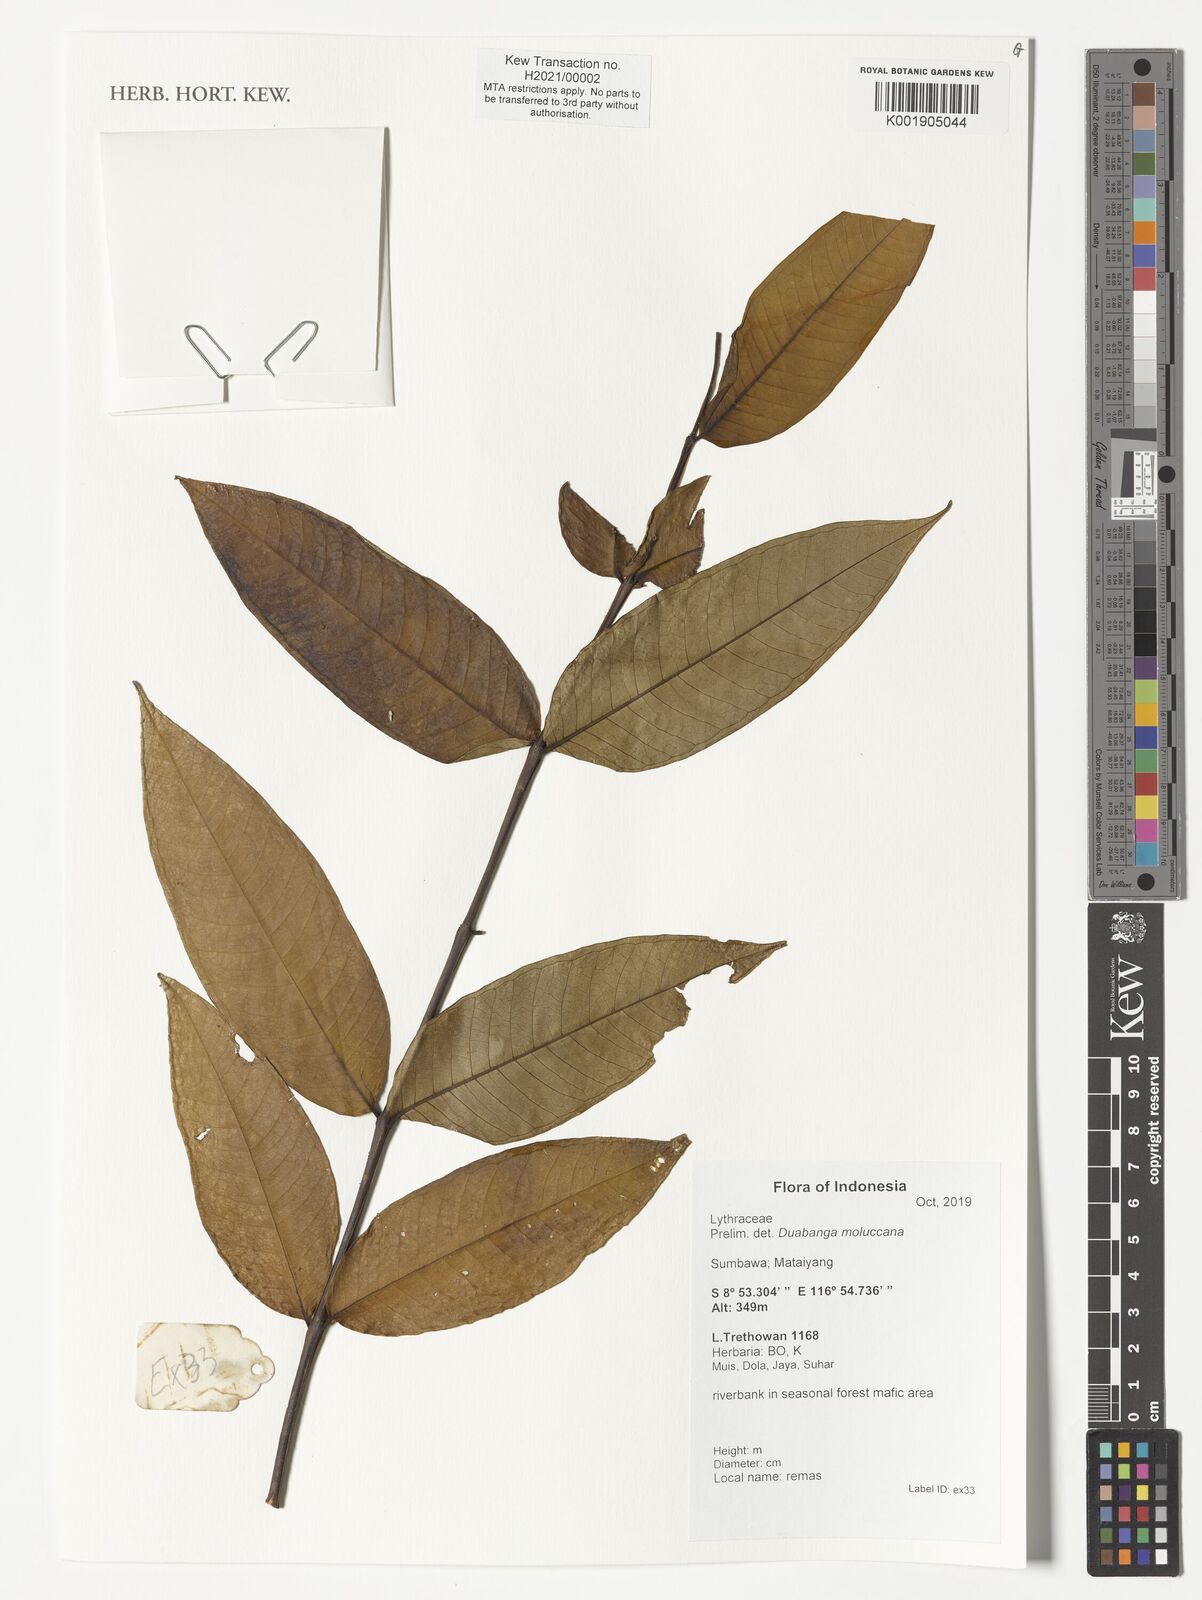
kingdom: Plantae
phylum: Tracheophyta
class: Magnoliopsida
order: Myrtales
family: Lythraceae
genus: Duabanga
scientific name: Duabanga moluccana
